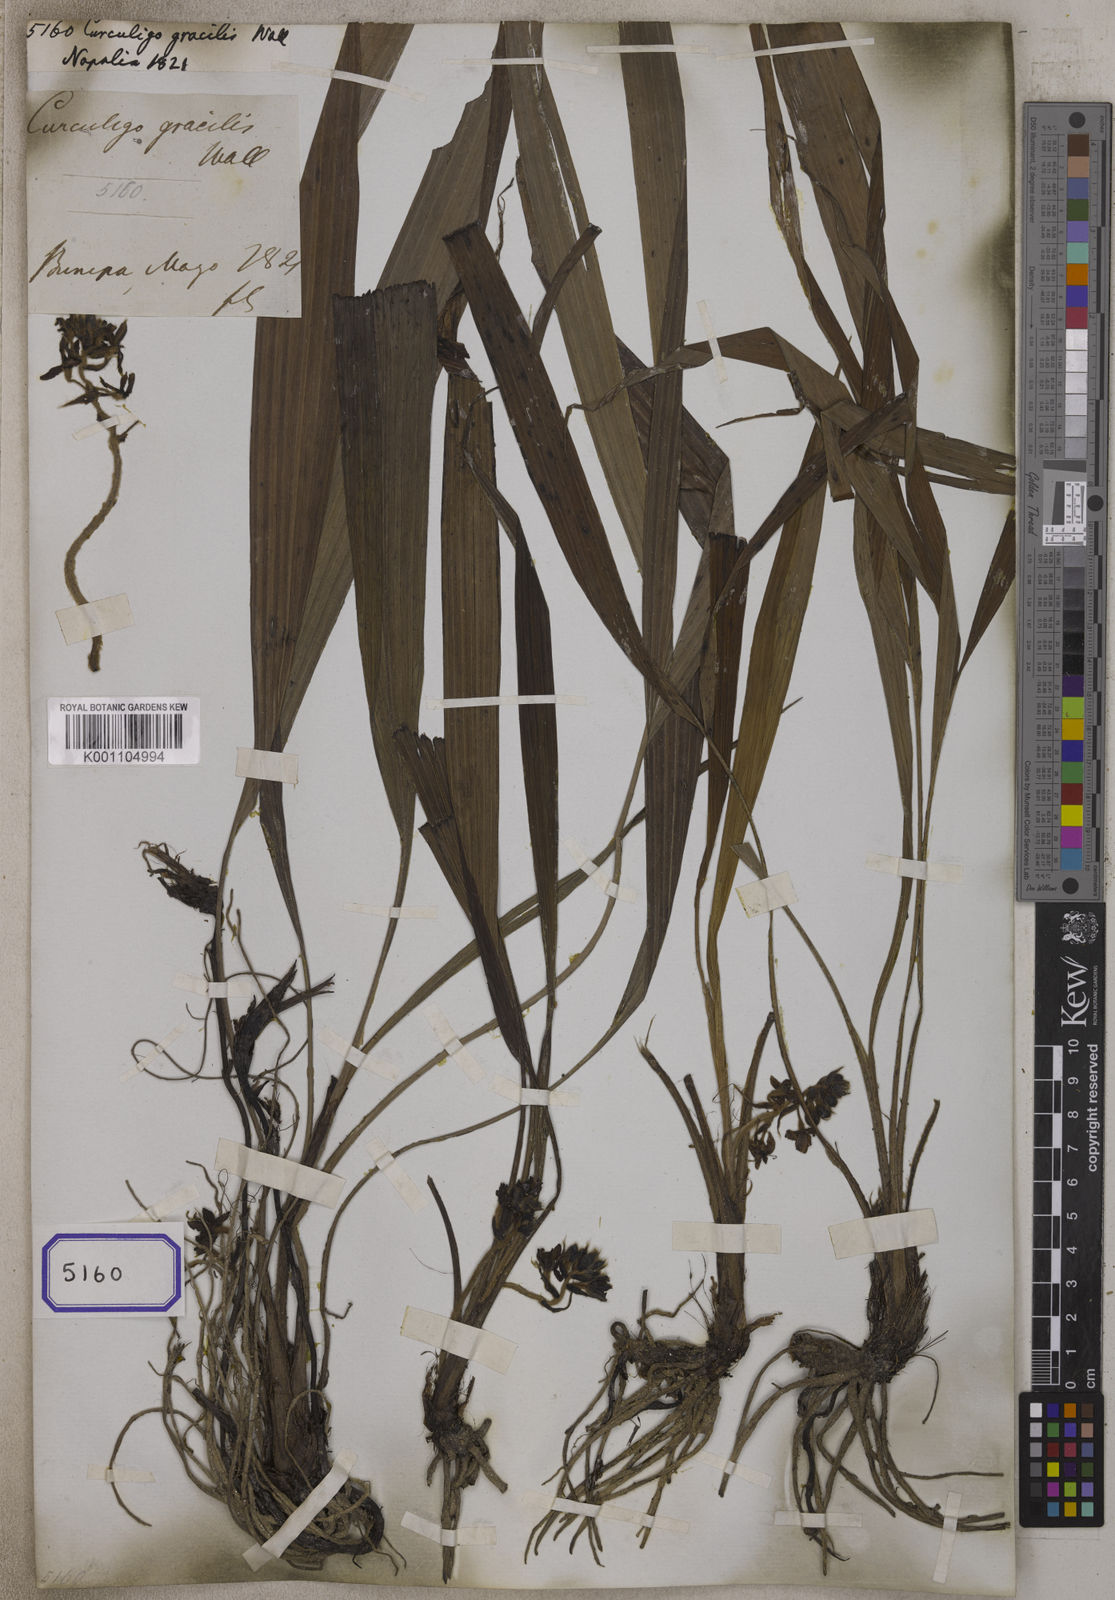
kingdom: Plantae
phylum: Tracheophyta
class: Liliopsida
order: Asparagales
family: Hypoxidaceae
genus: Curculigo
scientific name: Curculigo
